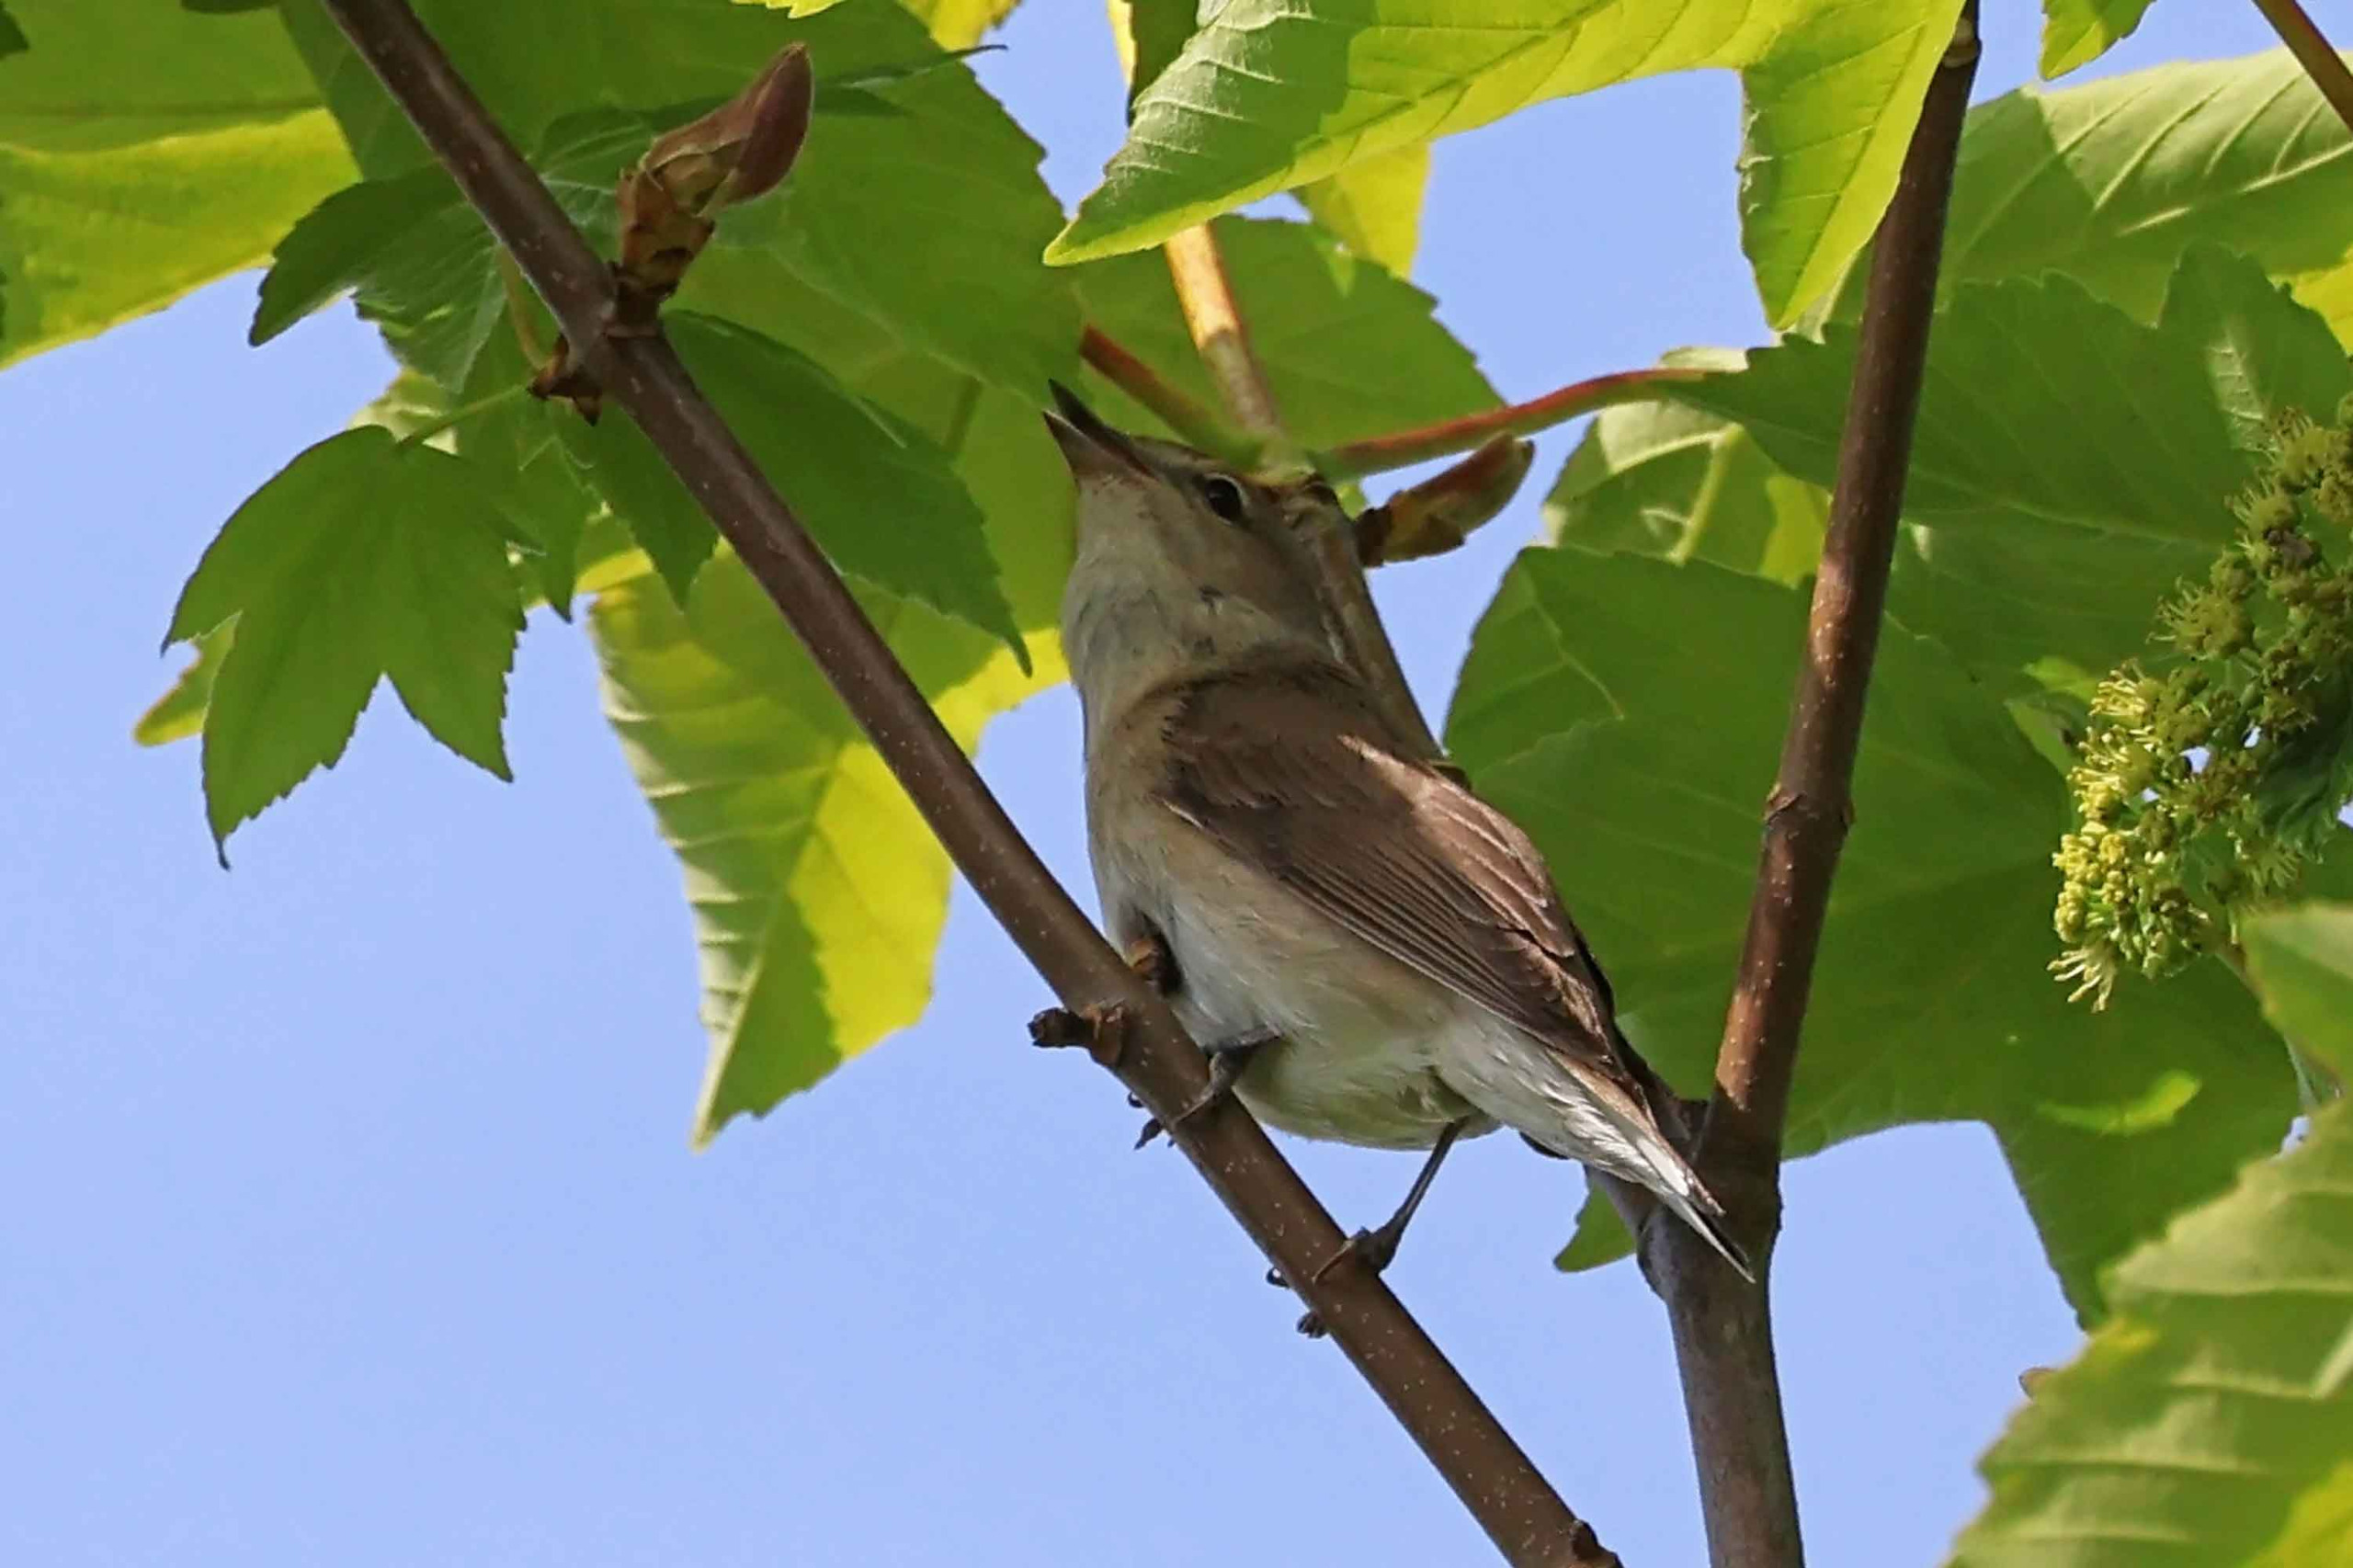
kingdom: Animalia
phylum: Chordata
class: Aves
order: Passeriformes
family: Sylviidae
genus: Sylvia
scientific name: Sylvia borin
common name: Havesanger
